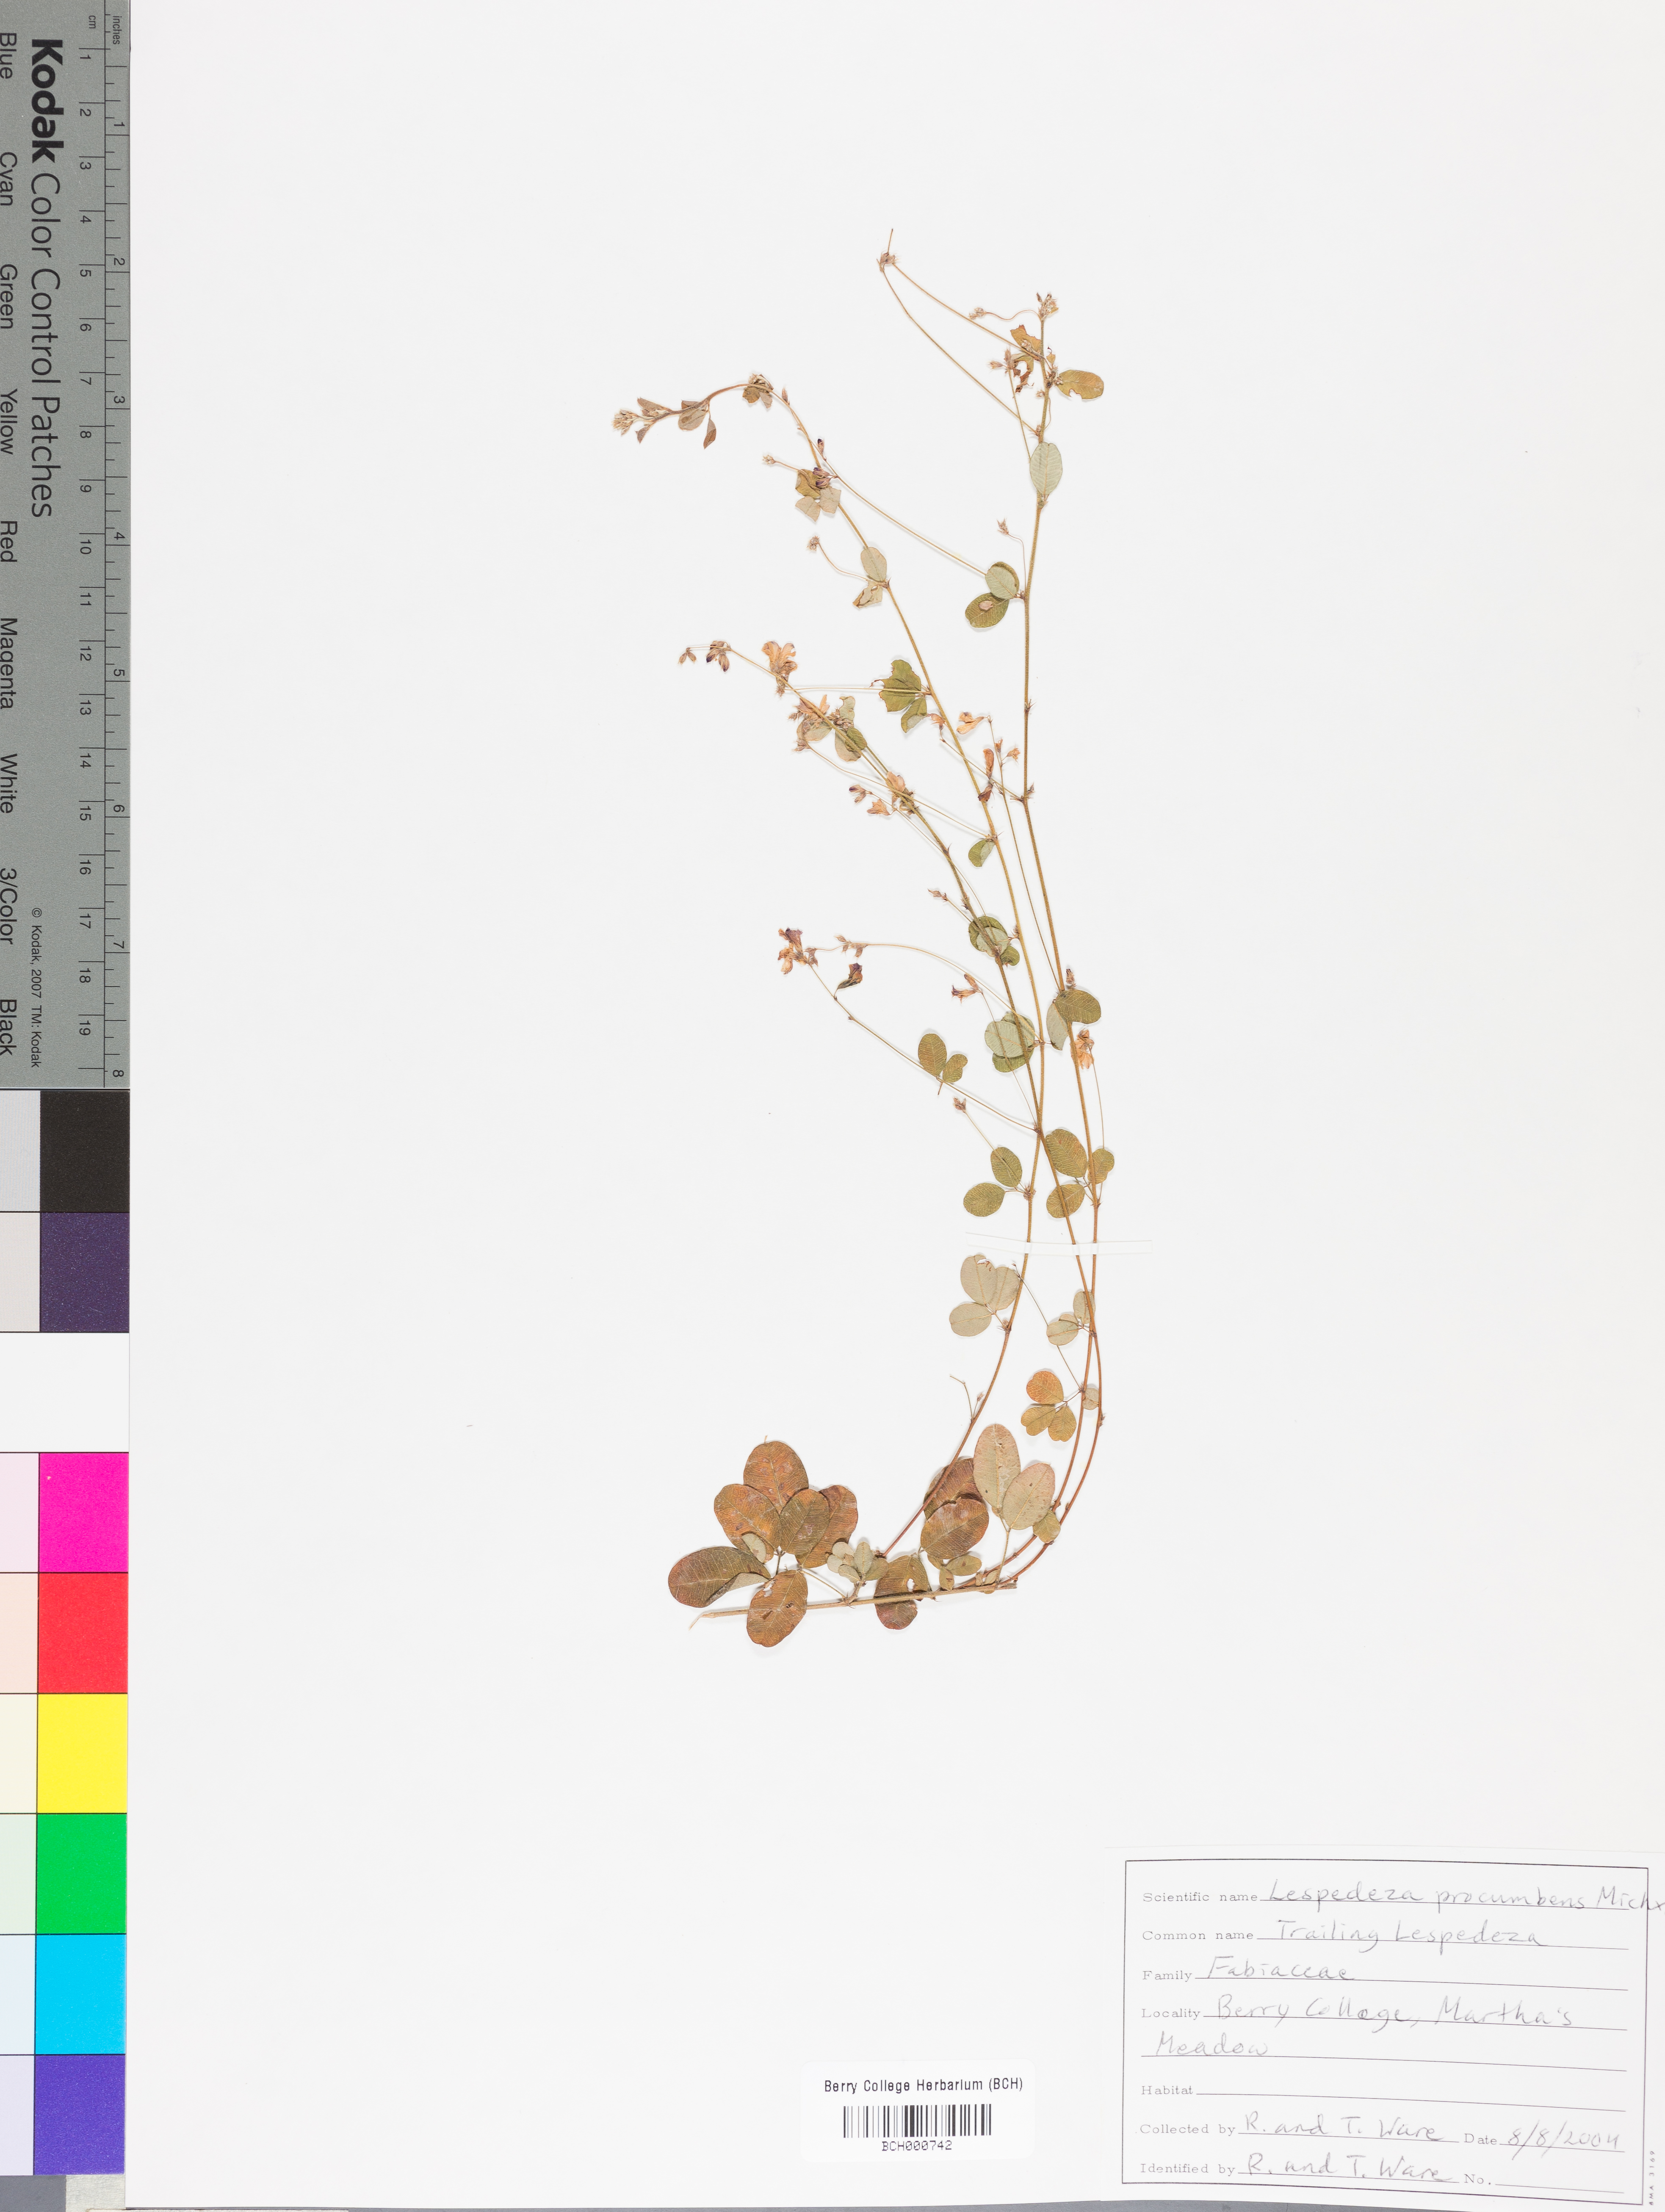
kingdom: Plantae
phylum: Tracheophyta
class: Magnoliopsida
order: Fabales
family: Fabaceae
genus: Lespedeza
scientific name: Lespedeza procumbens
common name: Downy trailing bush-clover
